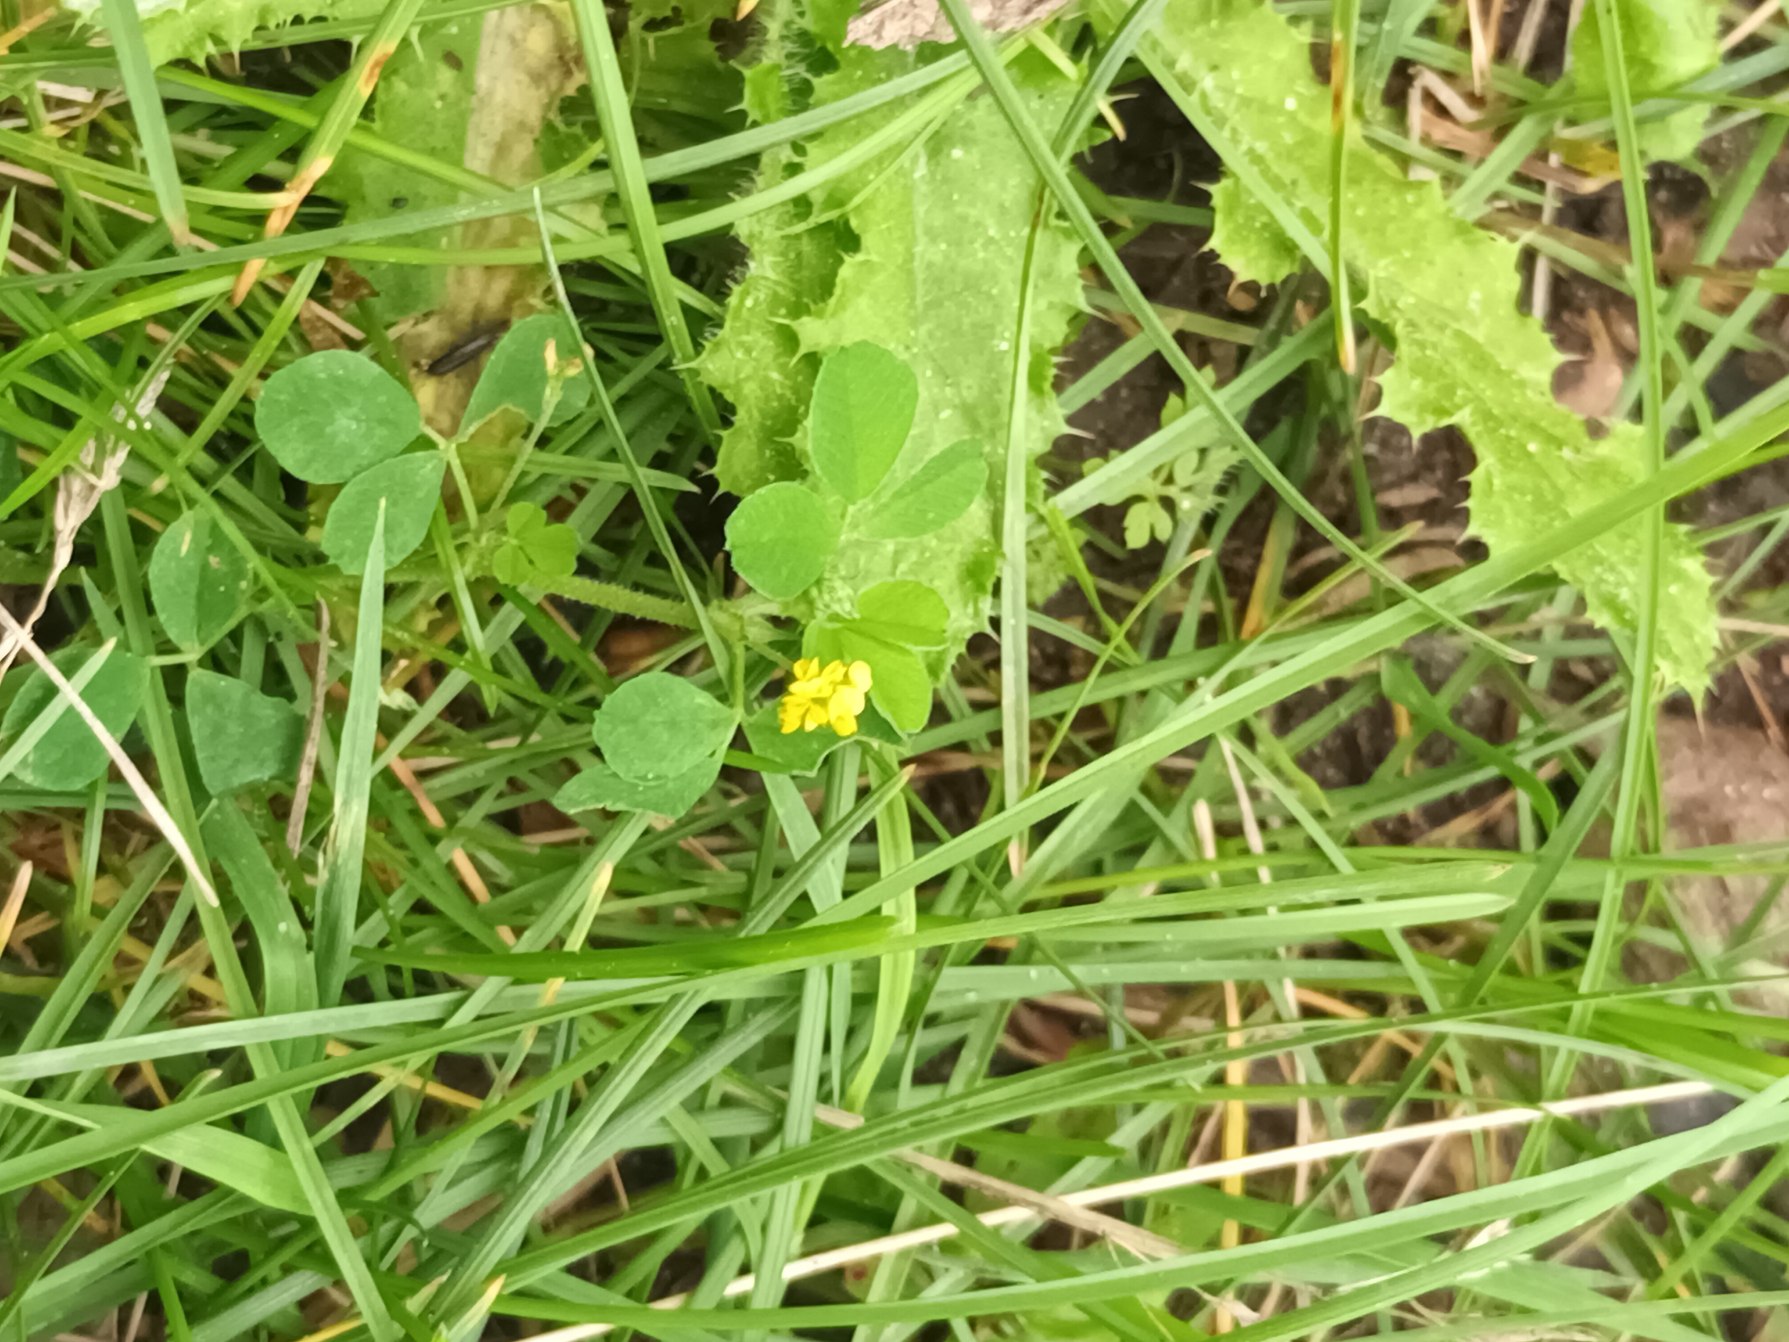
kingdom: Plantae
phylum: Tracheophyta
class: Magnoliopsida
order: Fabales
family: Fabaceae
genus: Medicago
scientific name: Medicago lupulina
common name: Humle-sneglebælg
